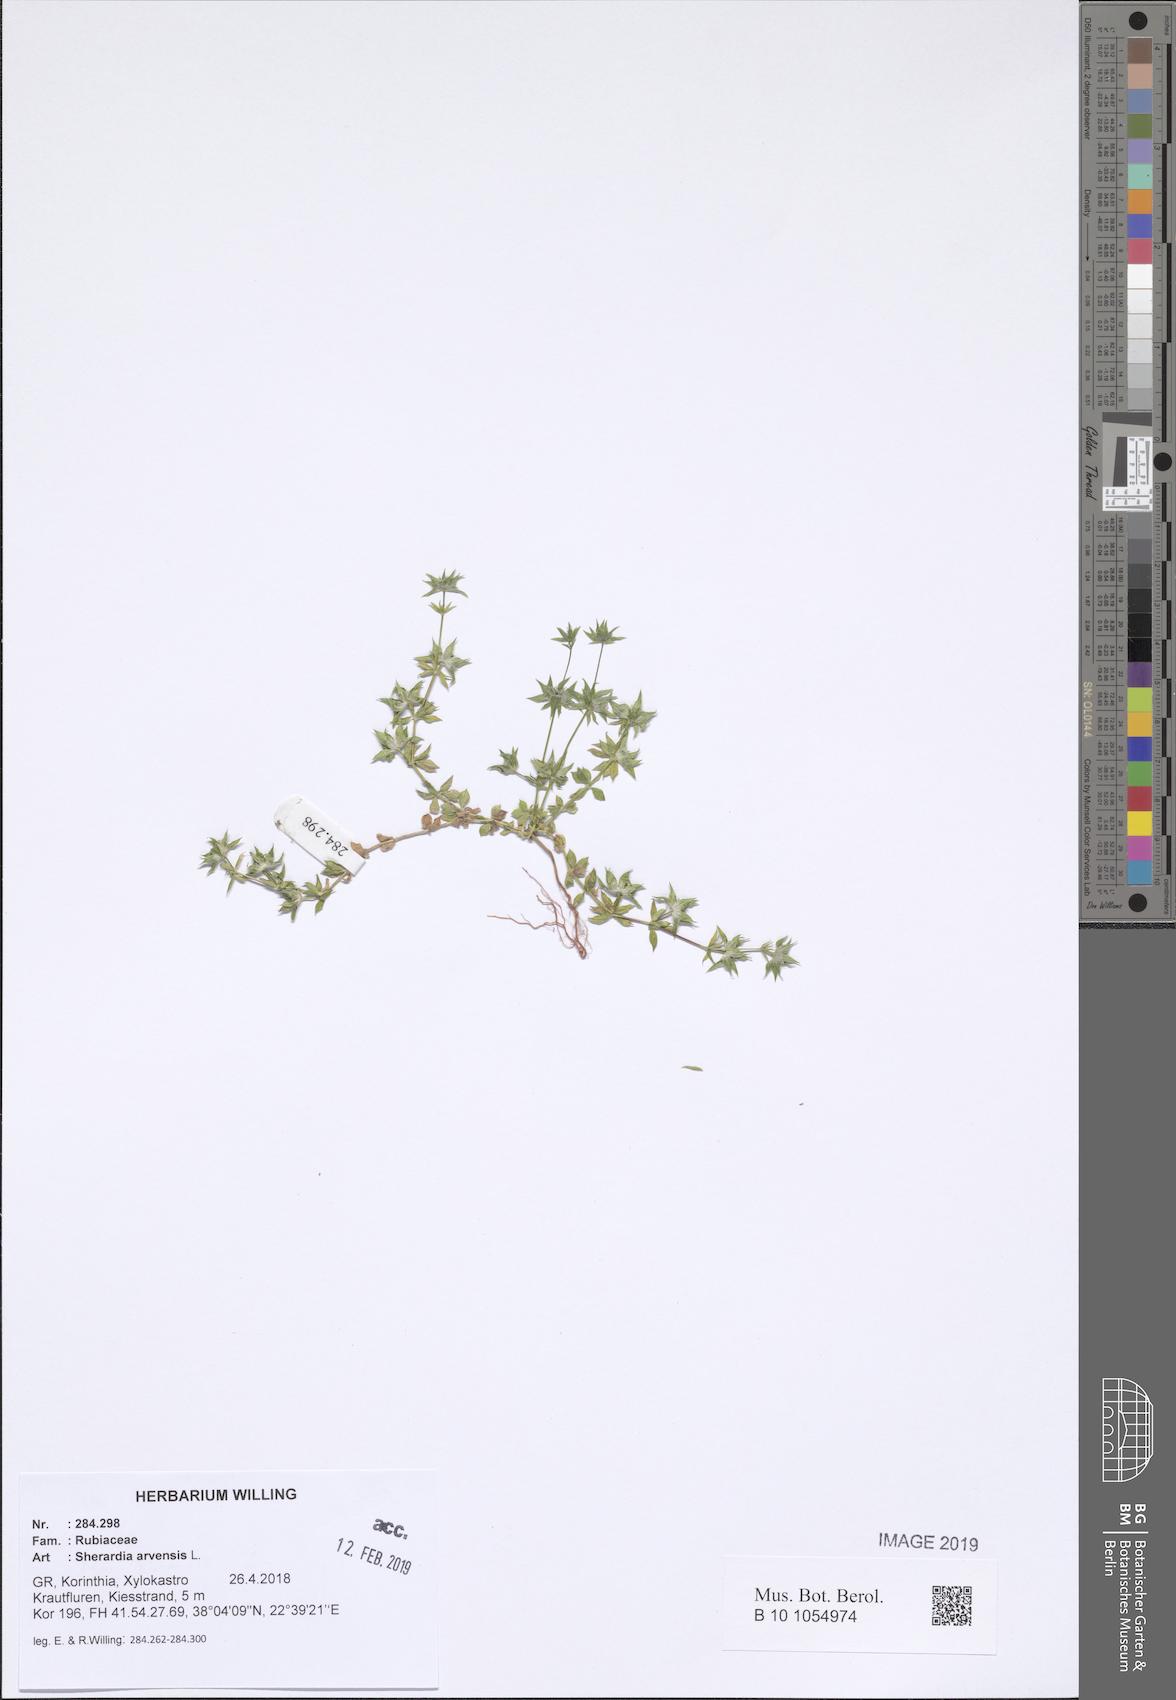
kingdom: Plantae
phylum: Tracheophyta
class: Magnoliopsida
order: Gentianales
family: Rubiaceae
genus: Sherardia
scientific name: Sherardia arvensis
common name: Field madder
